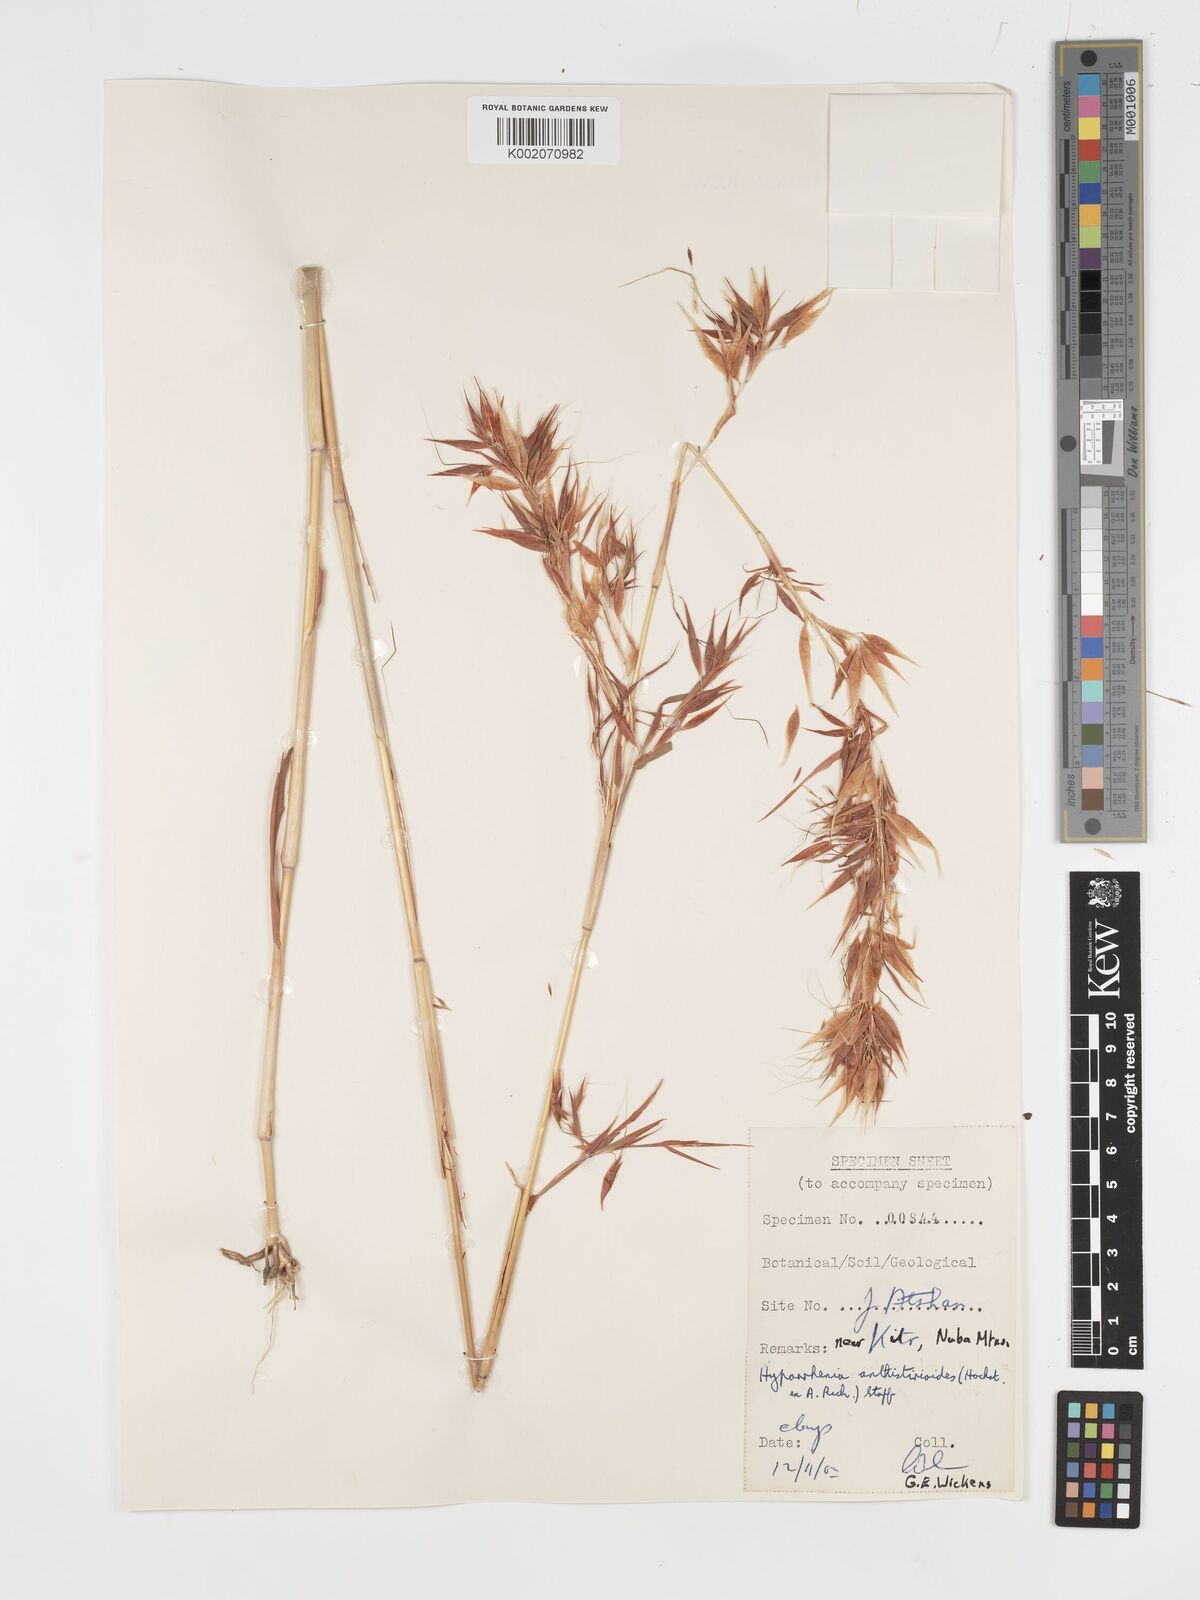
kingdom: Plantae
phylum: Tracheophyta
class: Liliopsida
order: Poales
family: Poaceae
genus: Hyparrhenia
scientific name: Hyparrhenia anthistirioides
